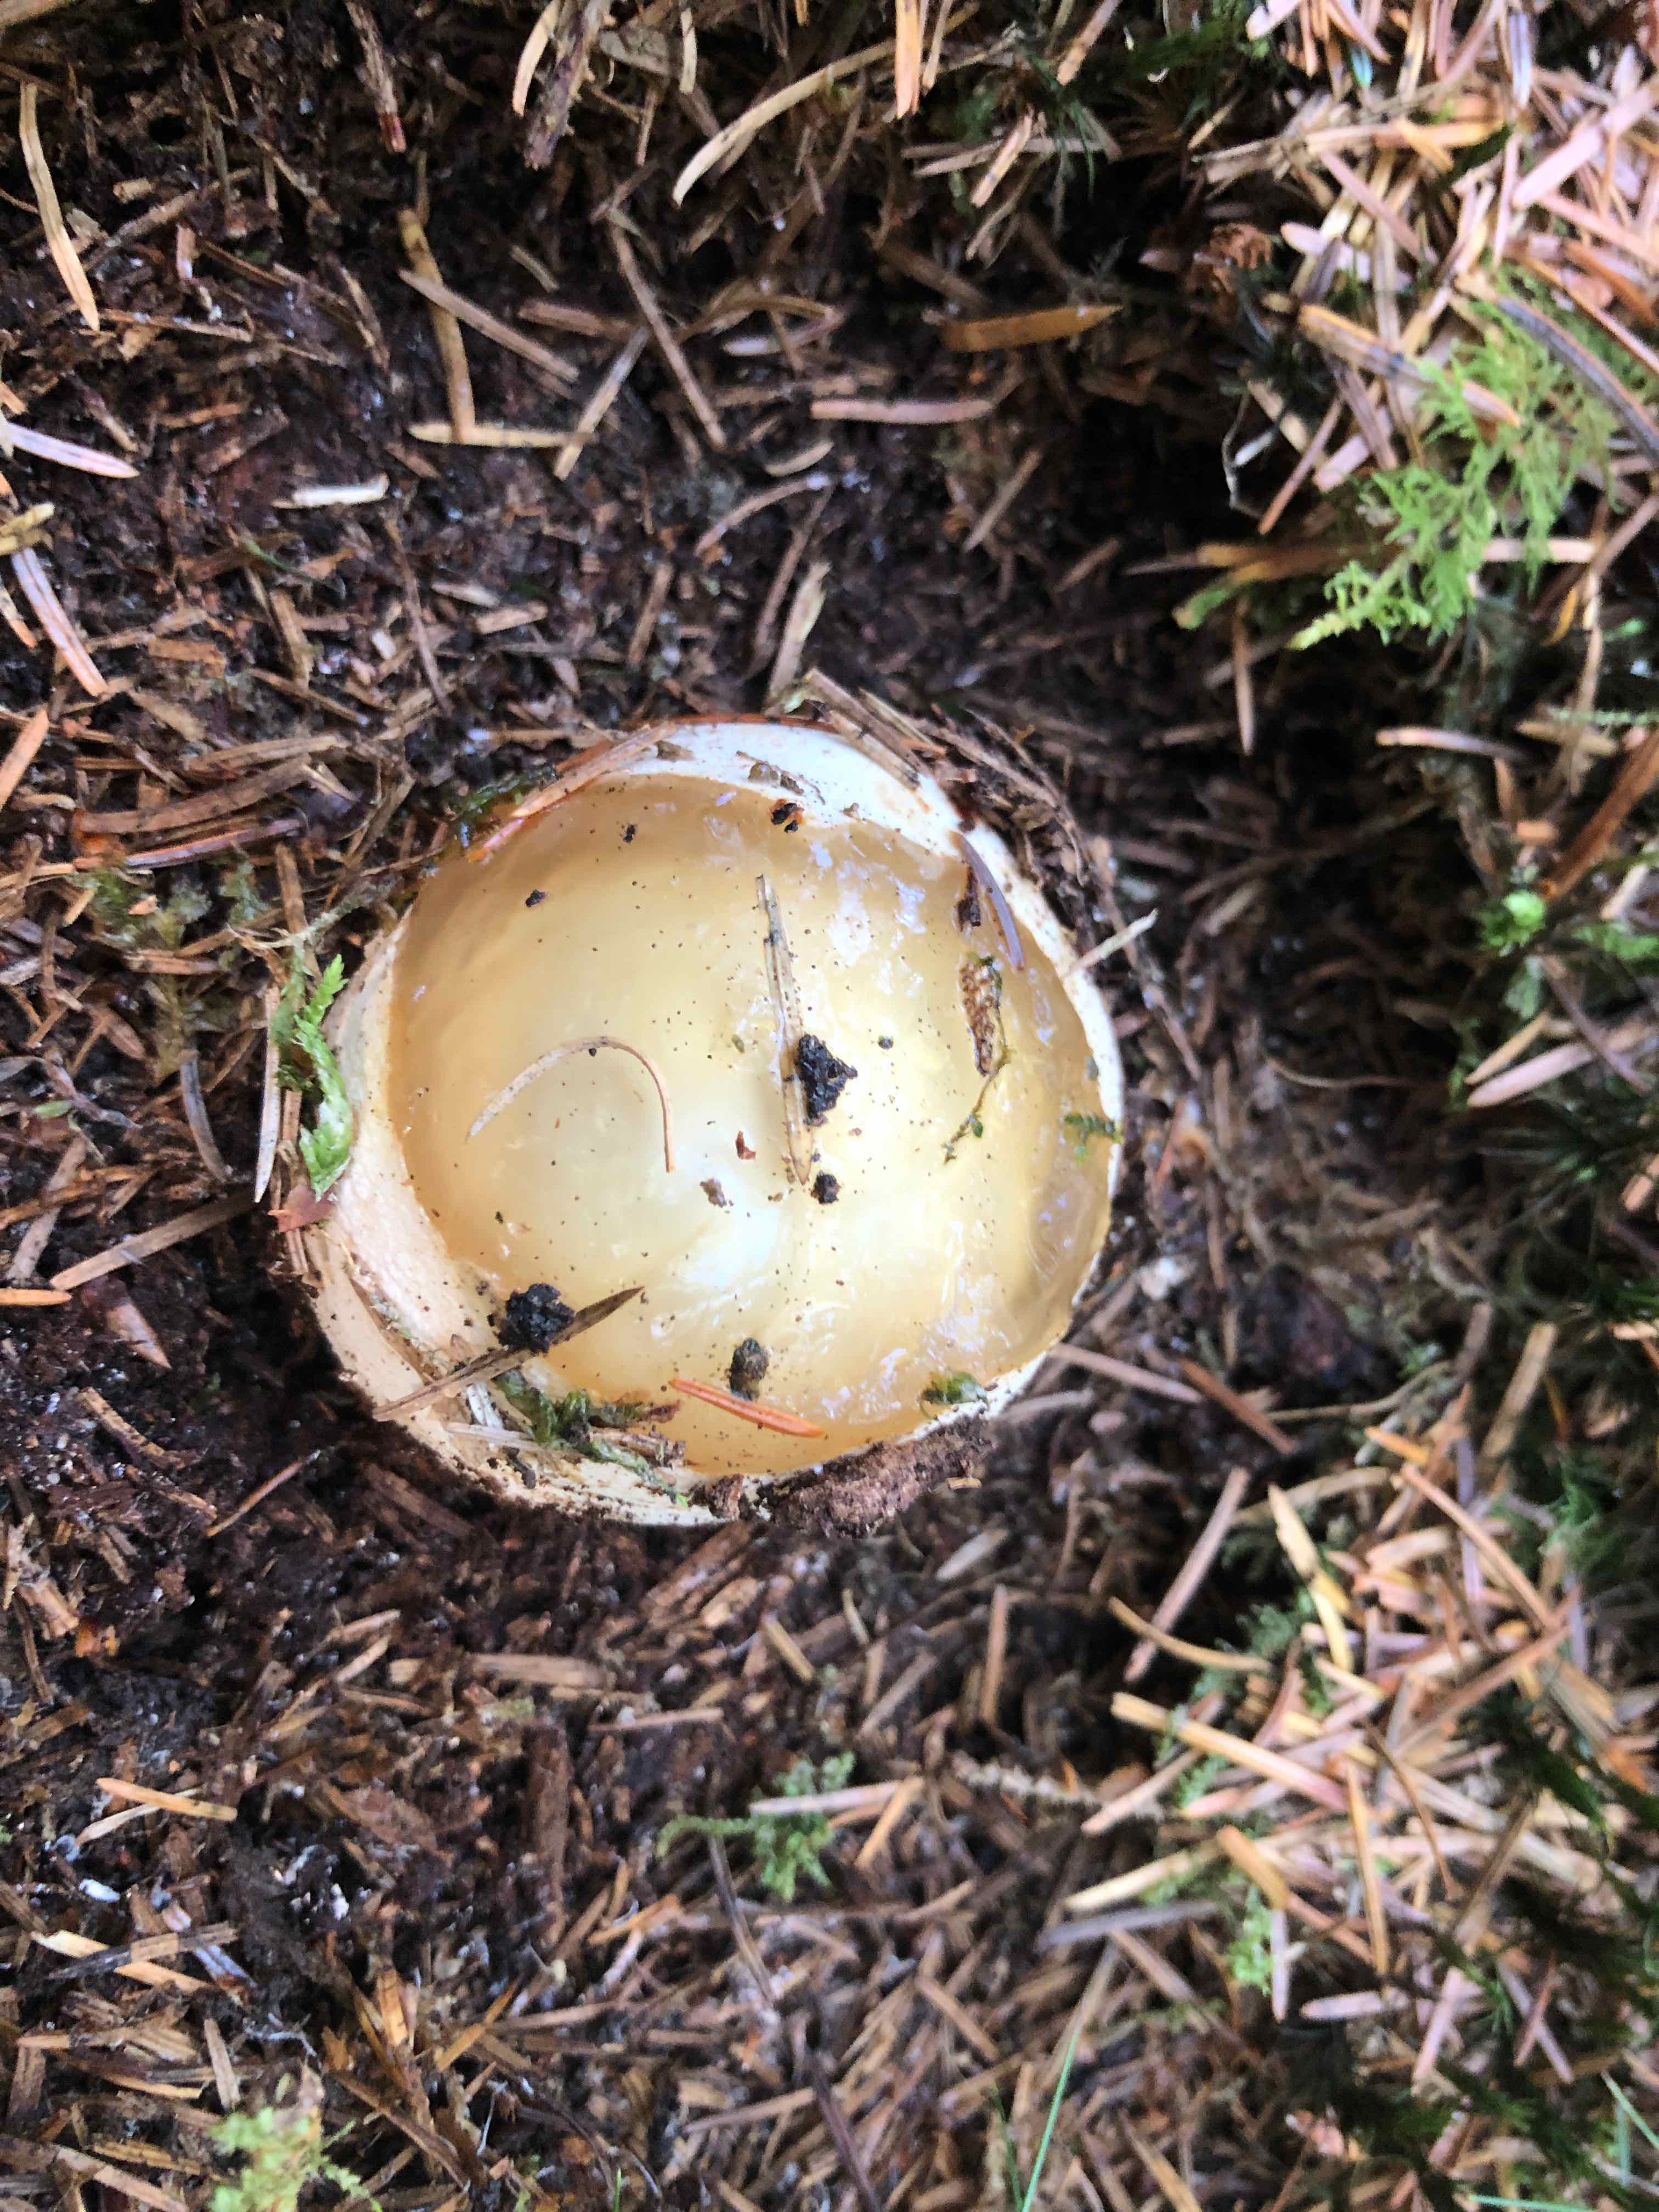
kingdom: Fungi
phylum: Basidiomycota
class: Agaricomycetes
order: Phallales
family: Phallaceae
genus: Phallus
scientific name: Phallus impudicus
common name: almindelig stinksvamp
